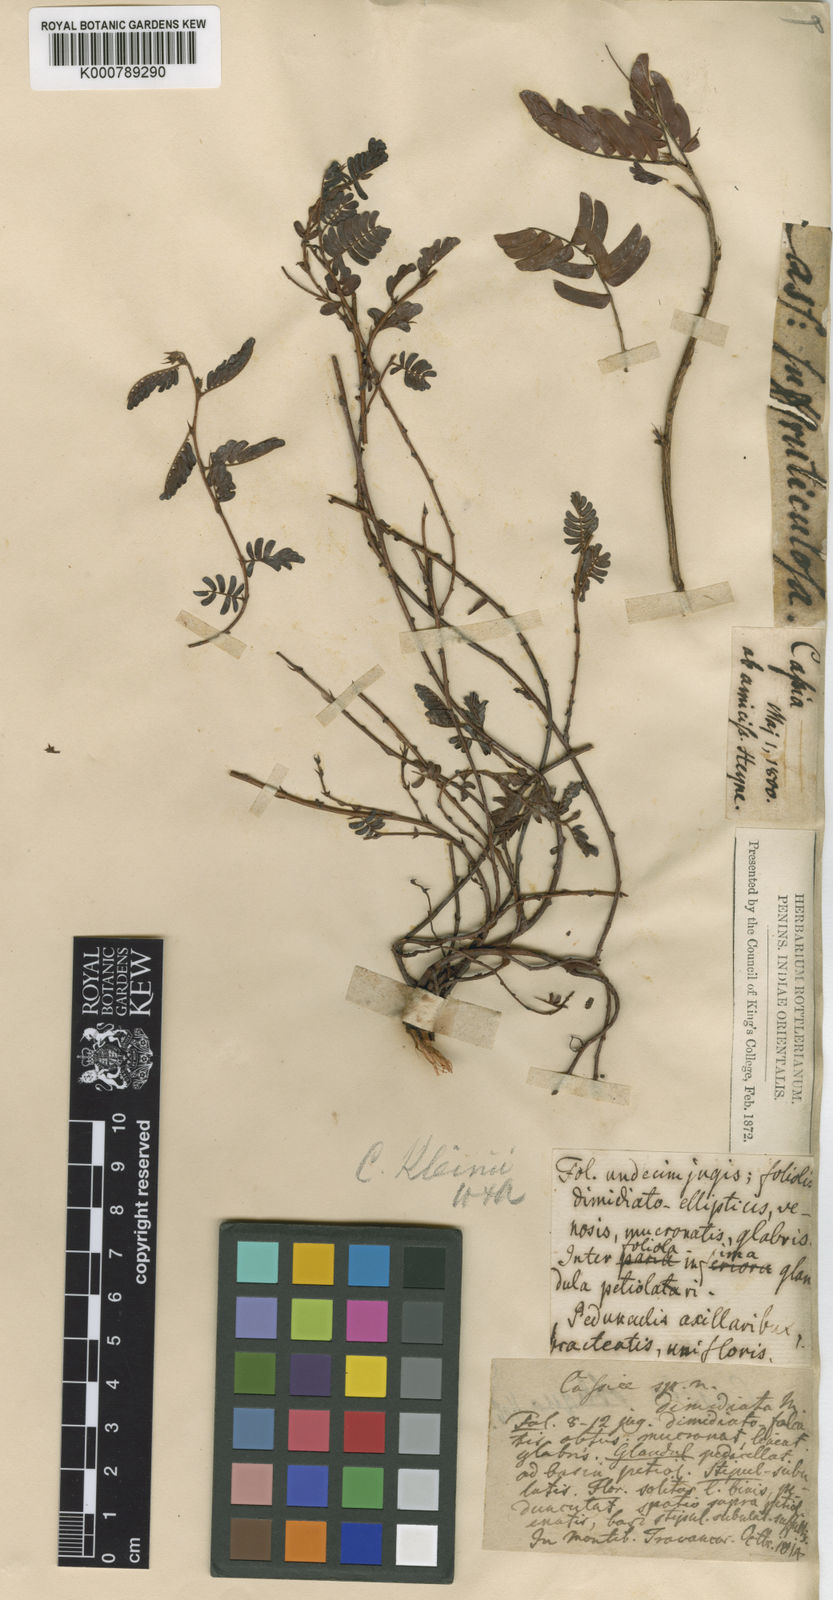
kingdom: Plantae
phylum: Tracheophyta
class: Magnoliopsida
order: Fabales
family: Fabaceae
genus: Chamaecrista
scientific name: Chamaecrista kleinii
